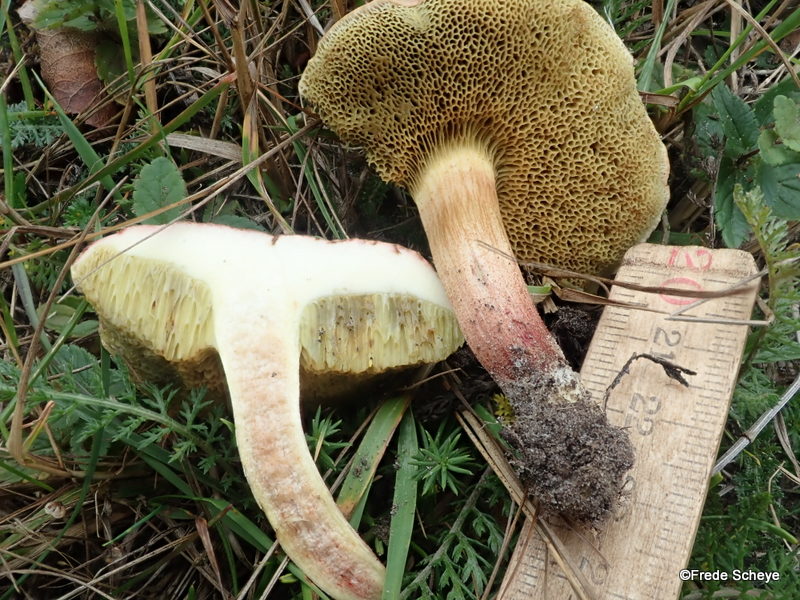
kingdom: Fungi
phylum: Basidiomycota
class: Agaricomycetes
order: Boletales
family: Boletaceae
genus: Xerocomellus
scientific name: Xerocomellus chrysenteron
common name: rødsprukken rørhat
